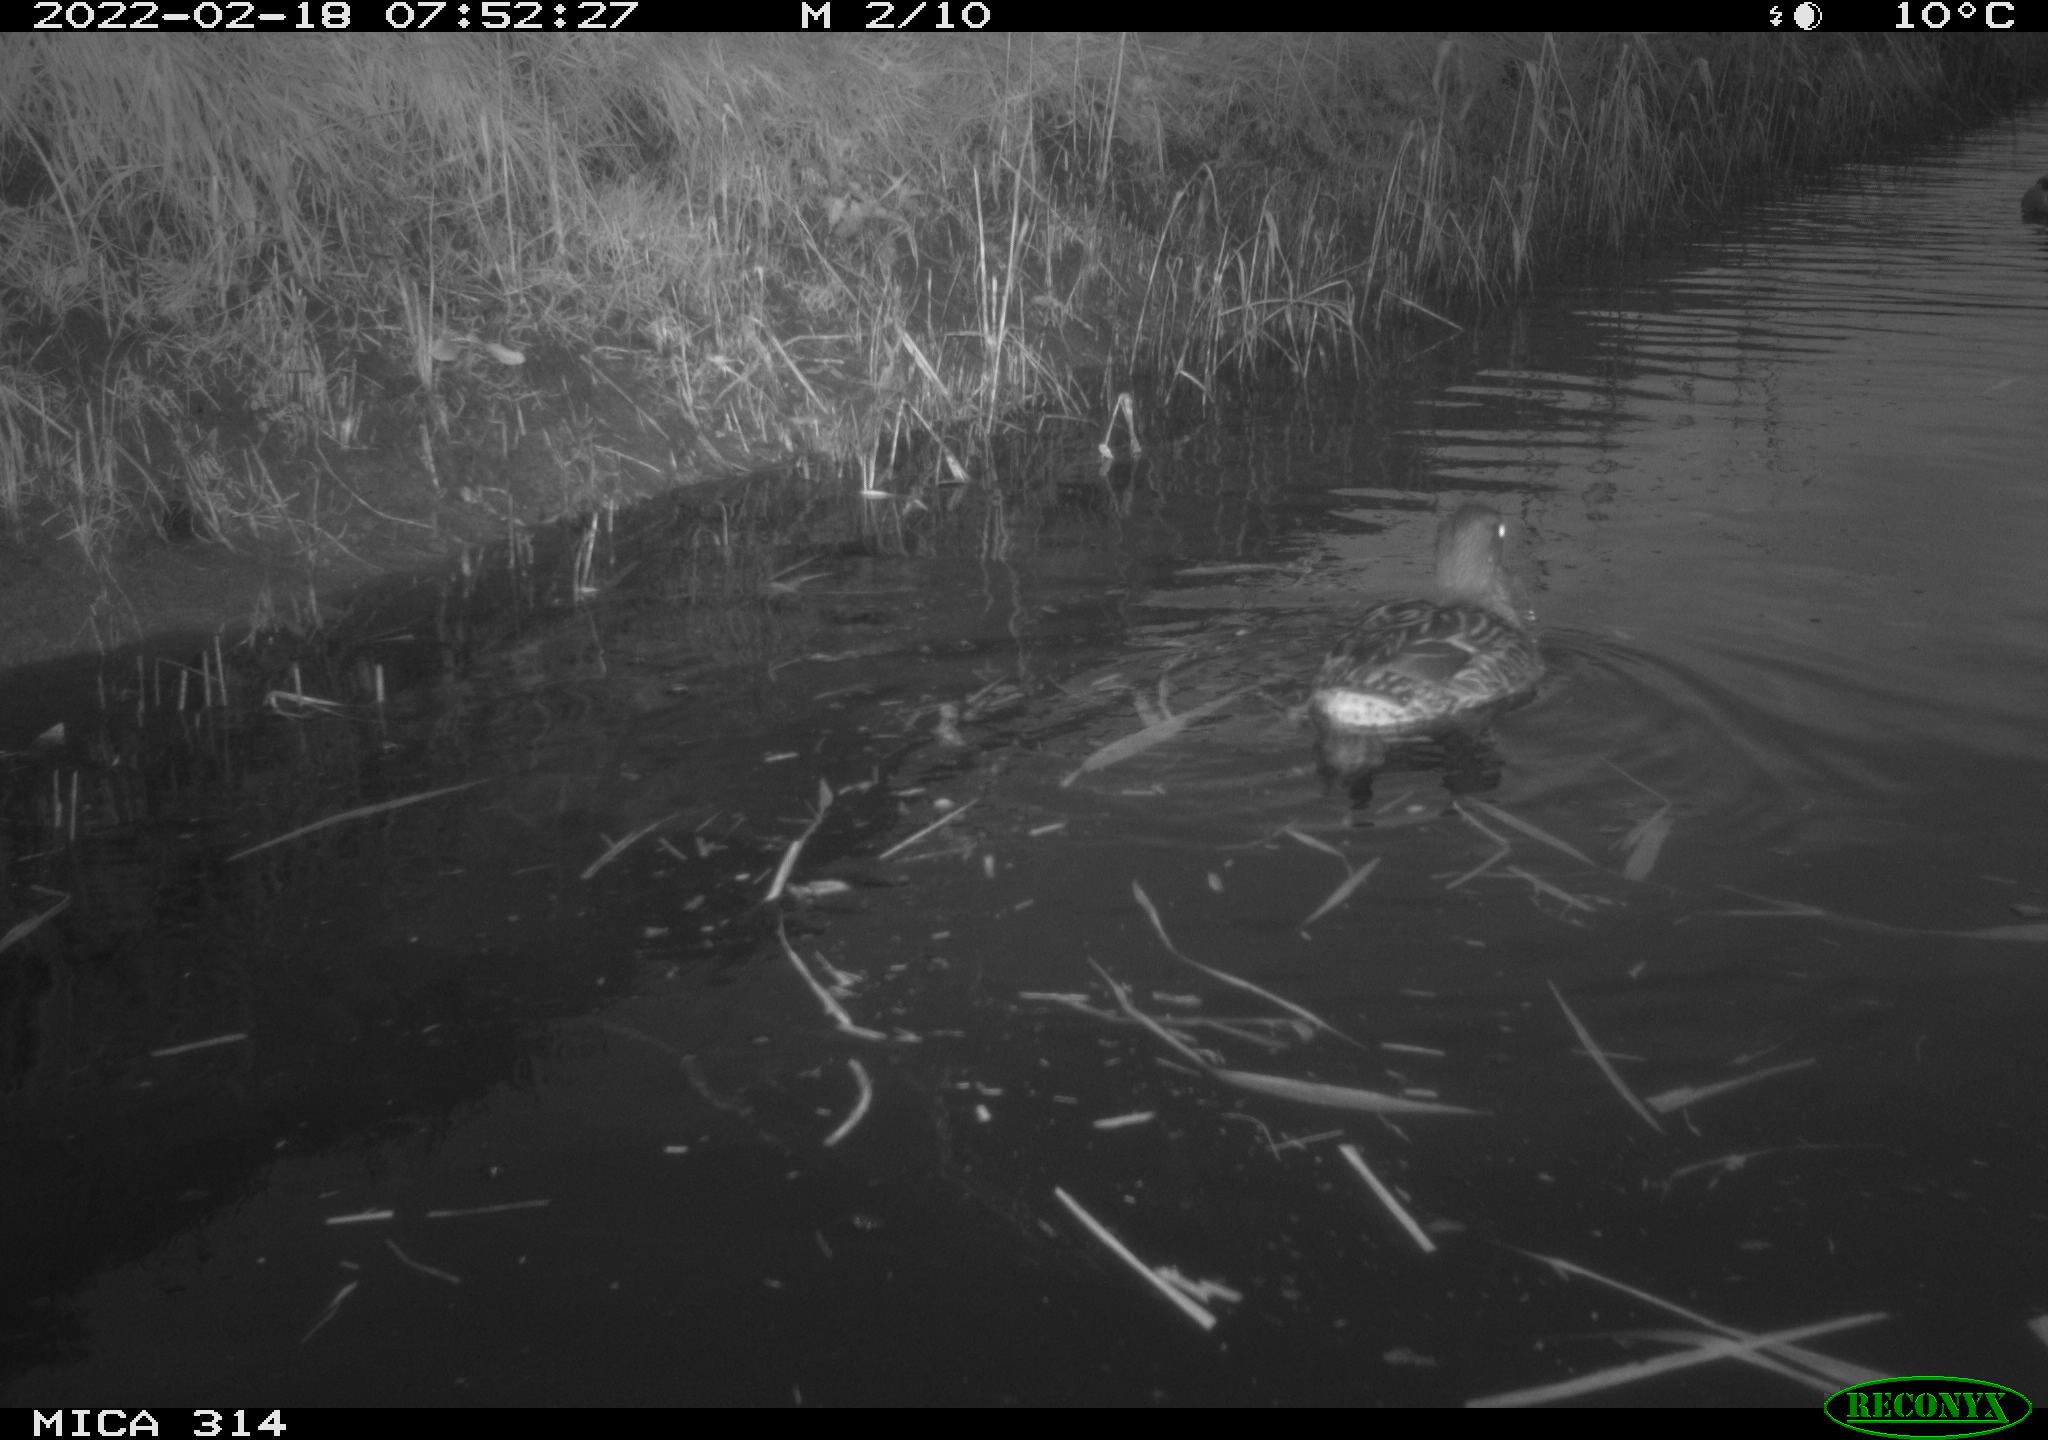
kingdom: Animalia
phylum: Chordata
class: Aves
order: Anseriformes
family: Anatidae
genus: Anas
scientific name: Anas platyrhynchos
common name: Mallard
